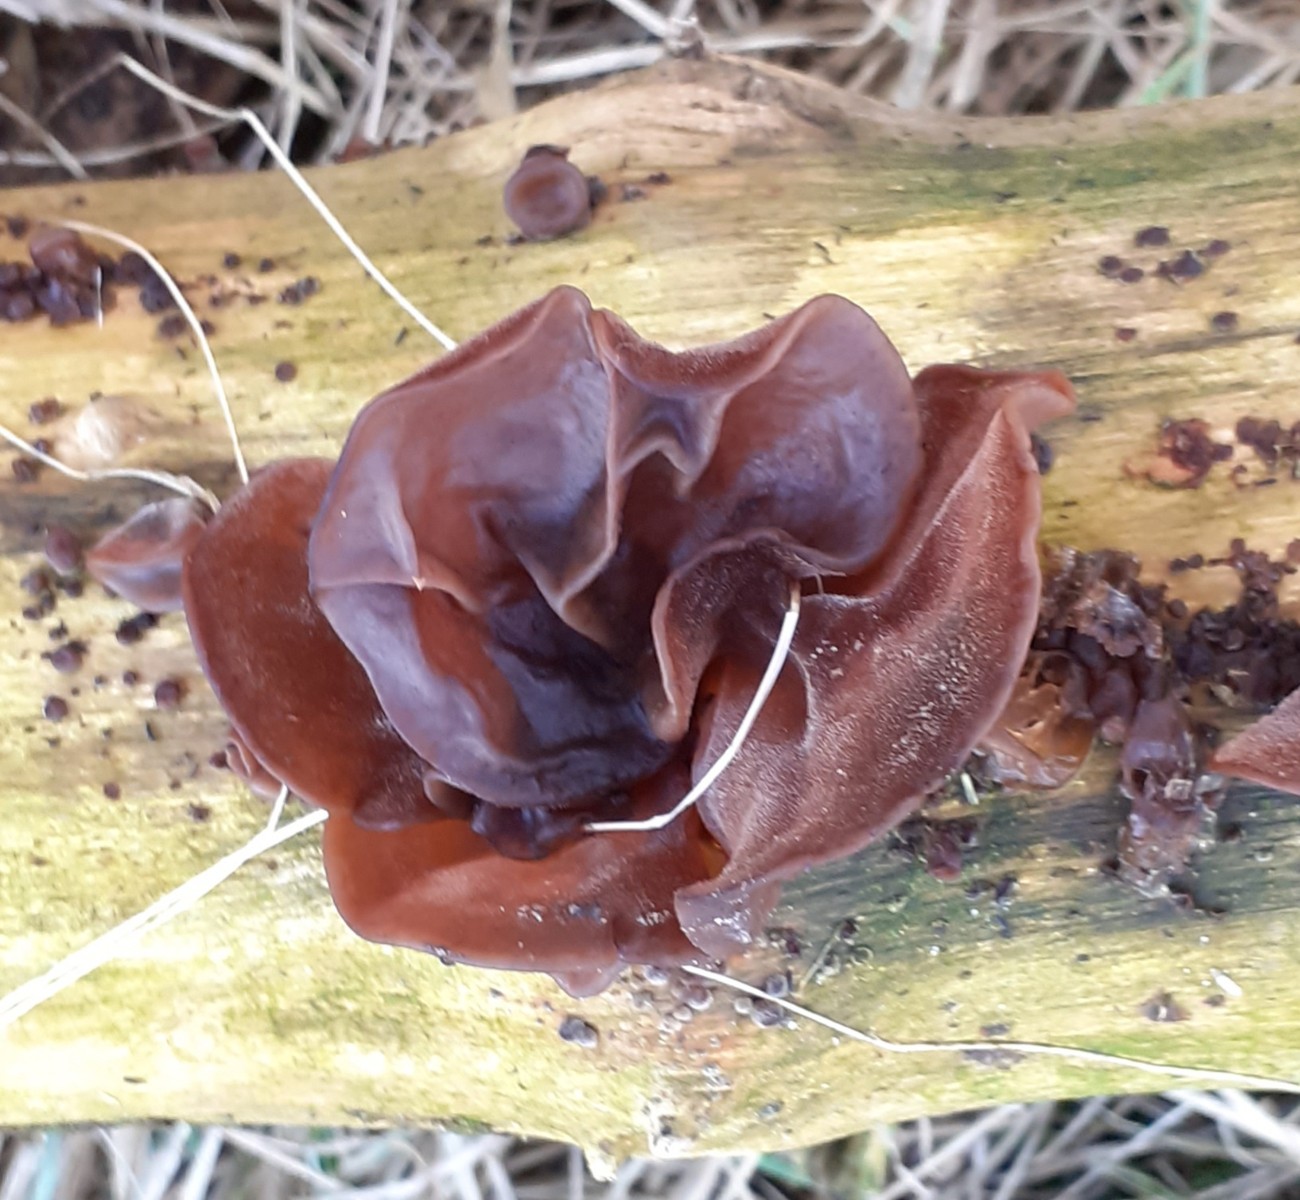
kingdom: Fungi
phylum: Basidiomycota
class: Agaricomycetes
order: Auriculariales
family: Auriculariaceae
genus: Auricularia
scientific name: Auricularia auricula-judae
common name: almindelig judasøre
